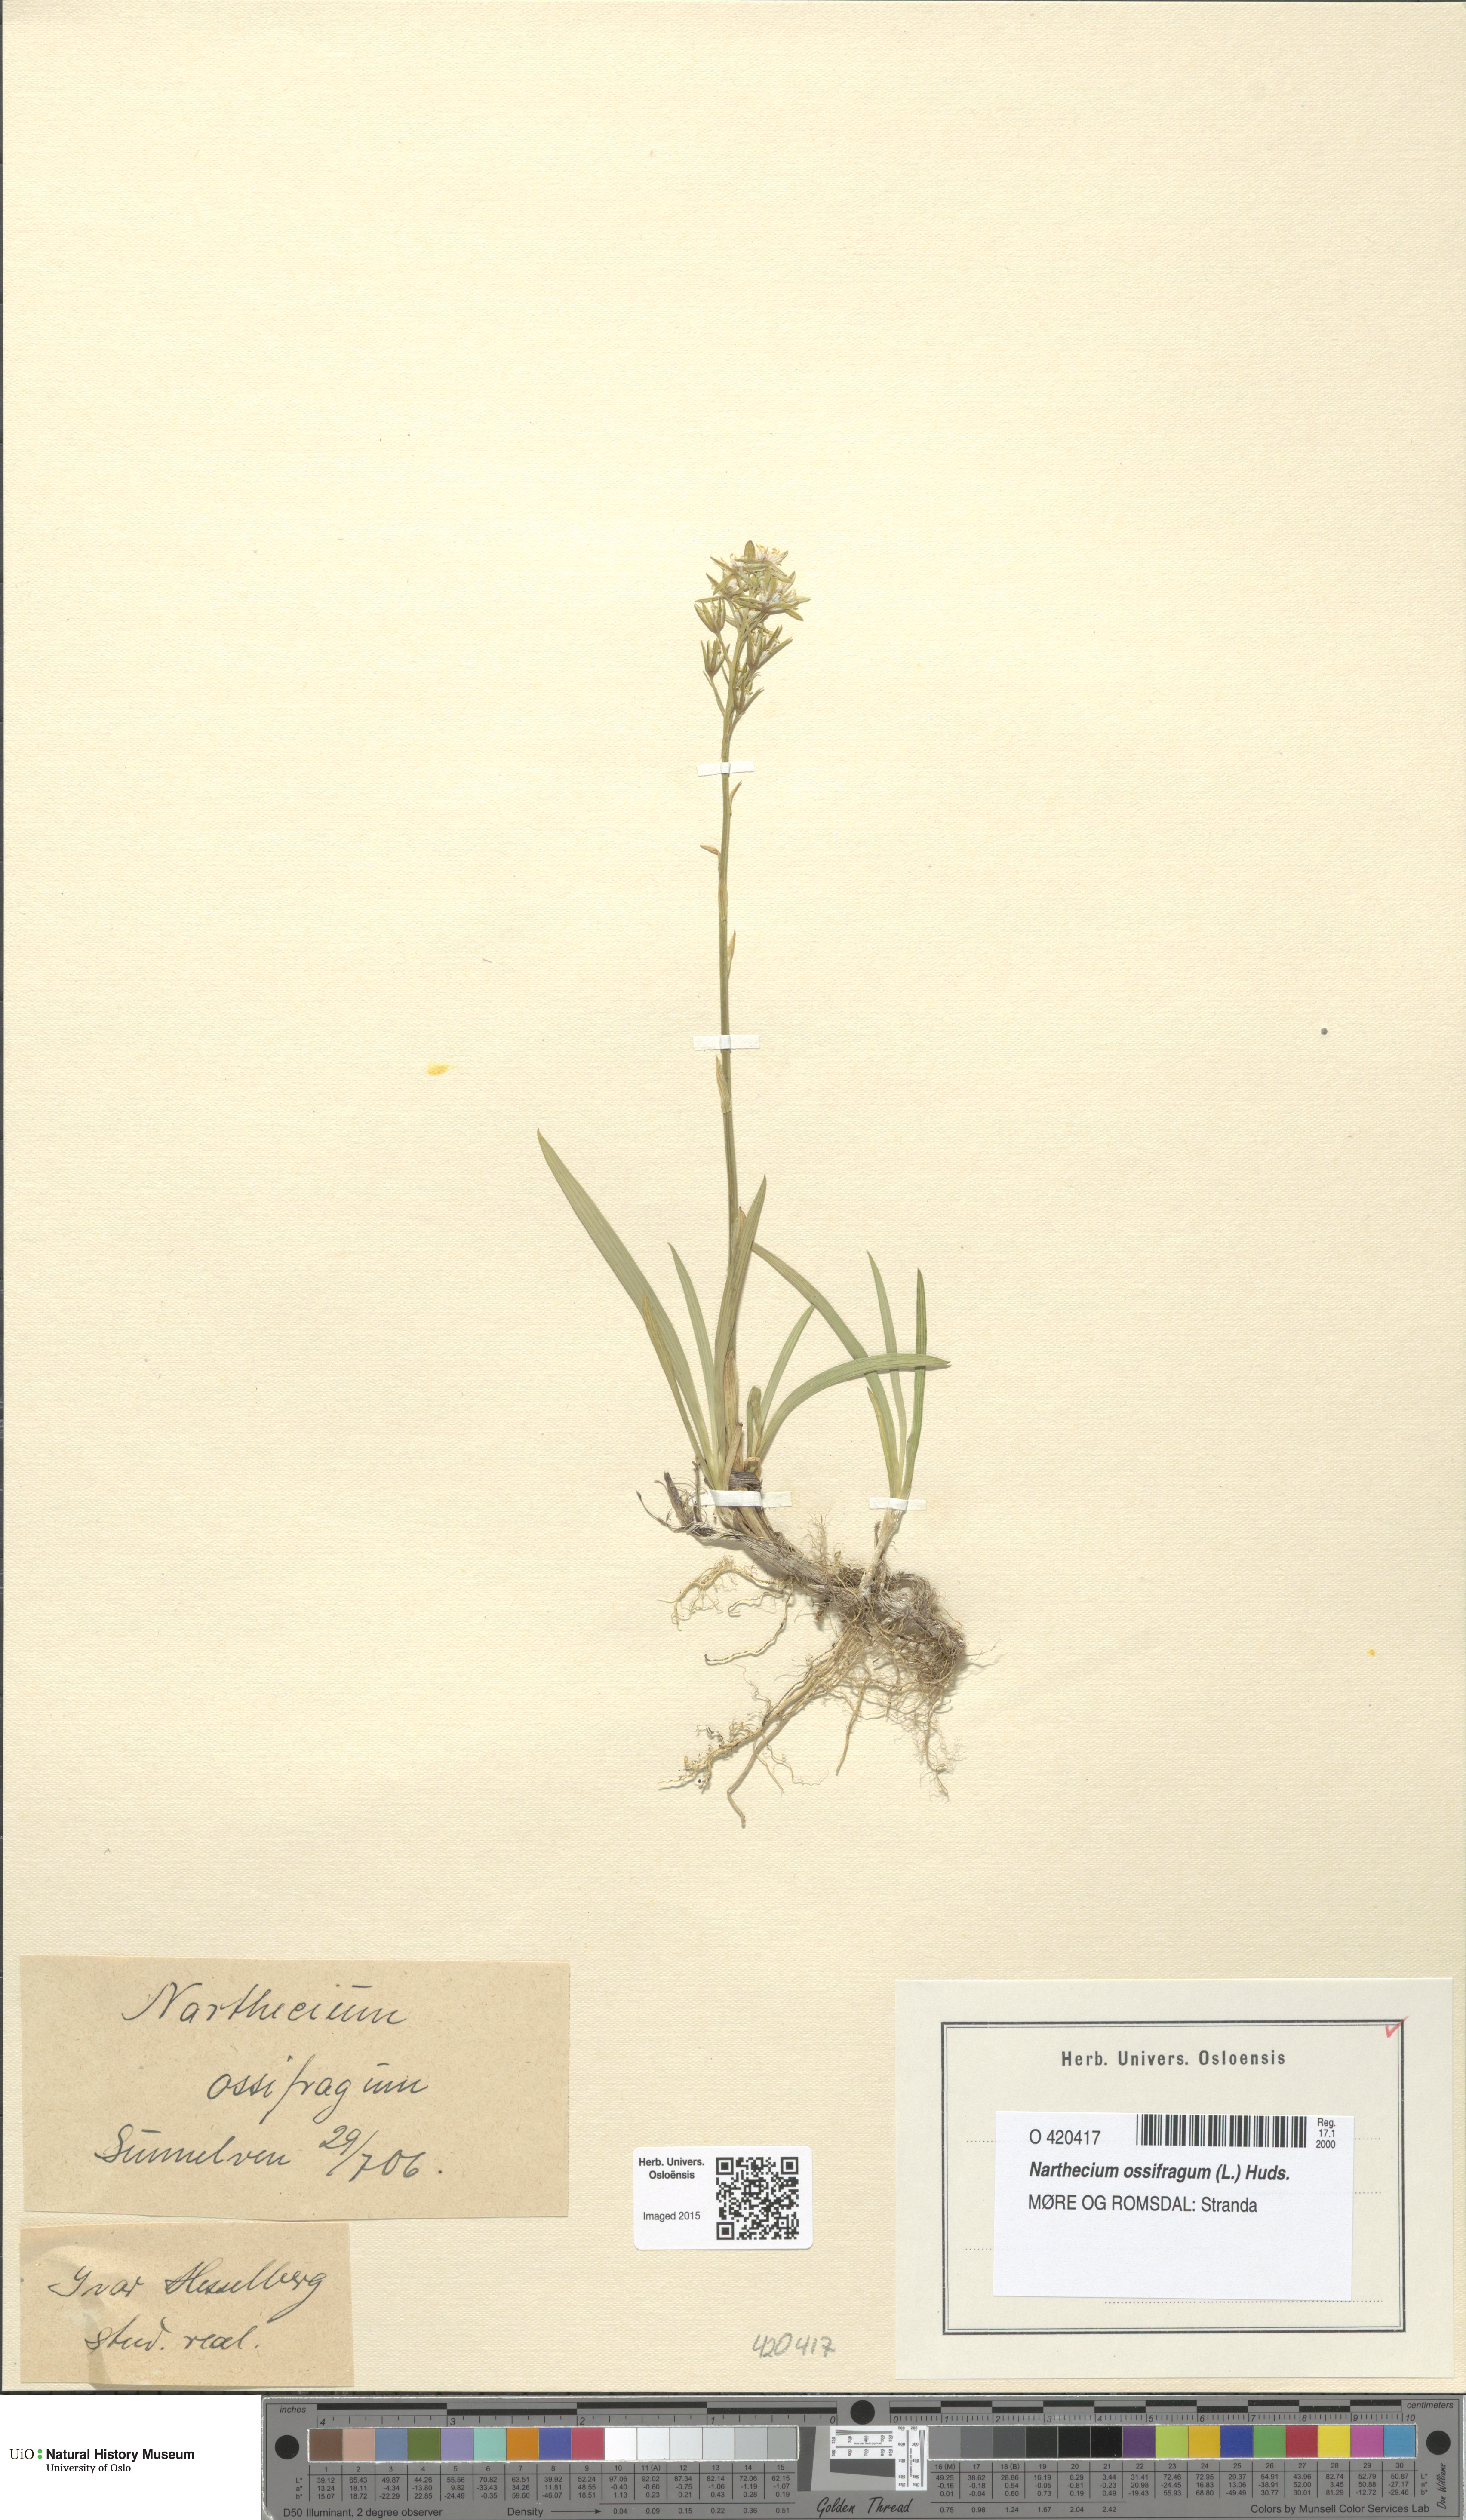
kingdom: Plantae
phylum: Tracheophyta
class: Liliopsida
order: Dioscoreales
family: Nartheciaceae
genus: Narthecium
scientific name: Narthecium ossifragum
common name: Bog asphodel
